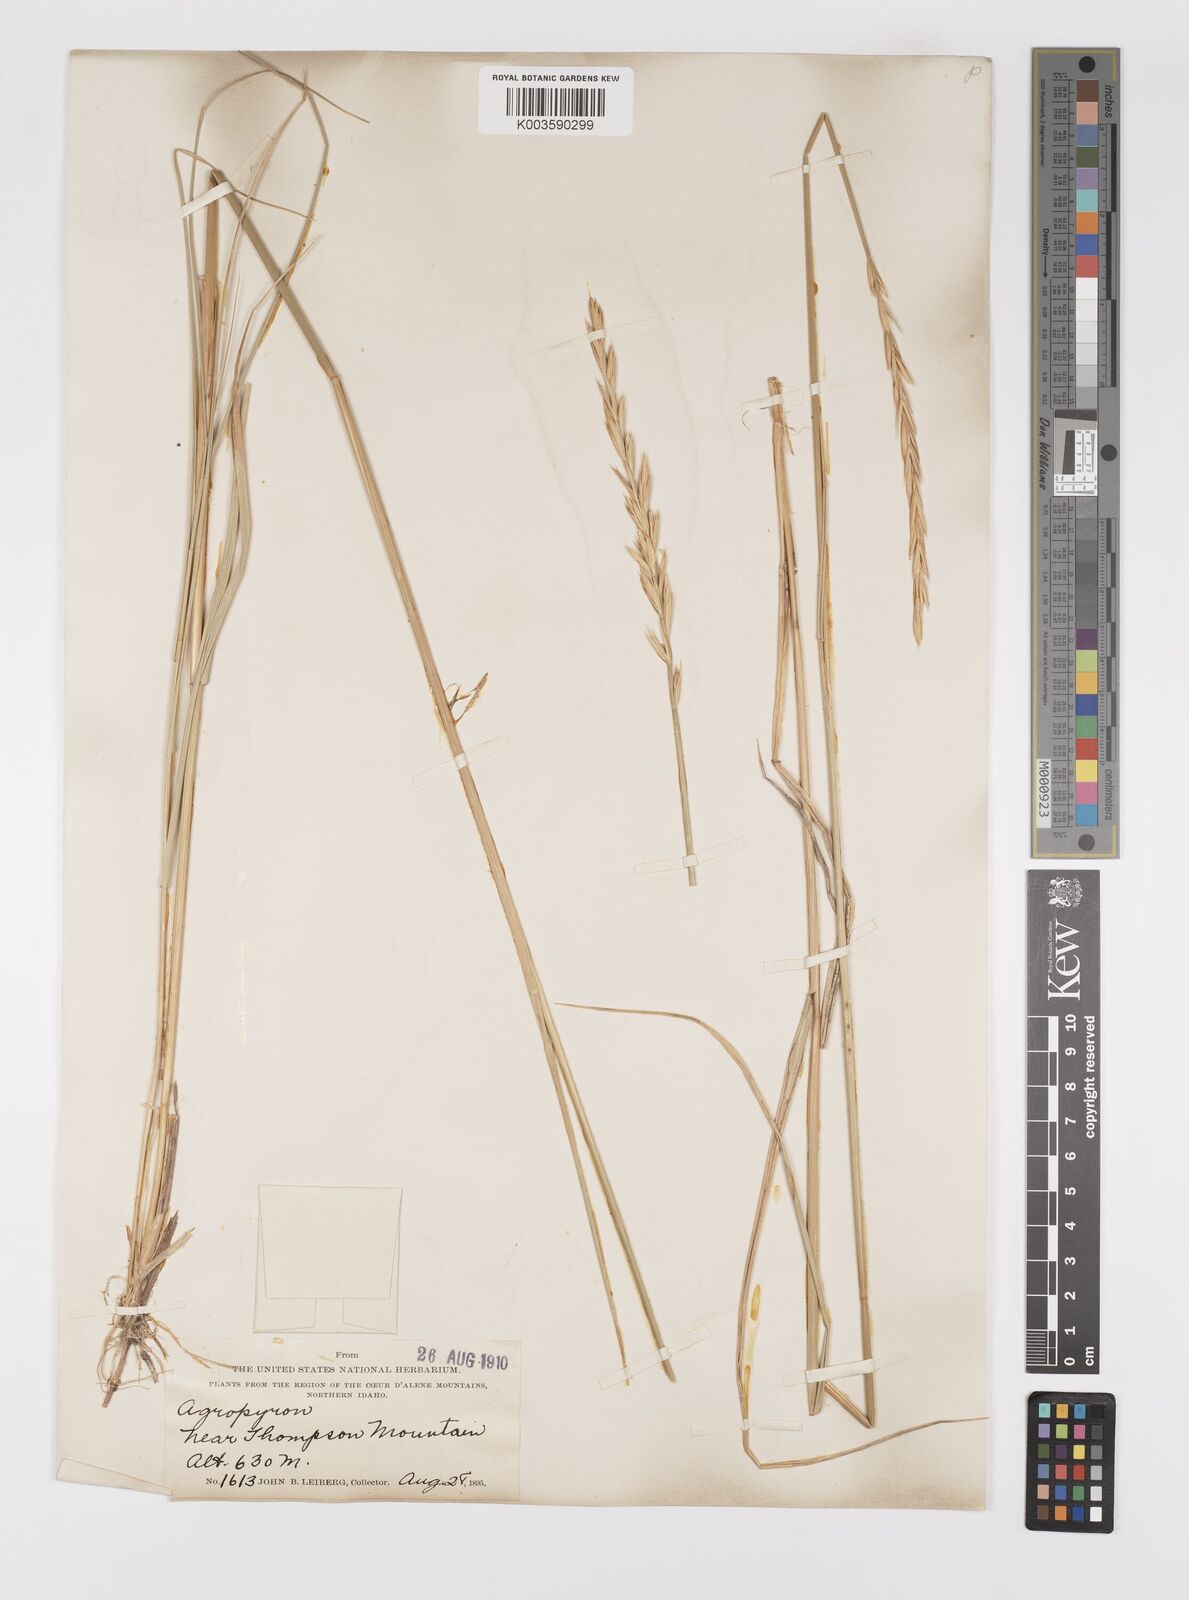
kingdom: Plantae
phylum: Tracheophyta
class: Liliopsida
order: Poales
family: Poaceae
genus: Elymus
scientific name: Elymus
